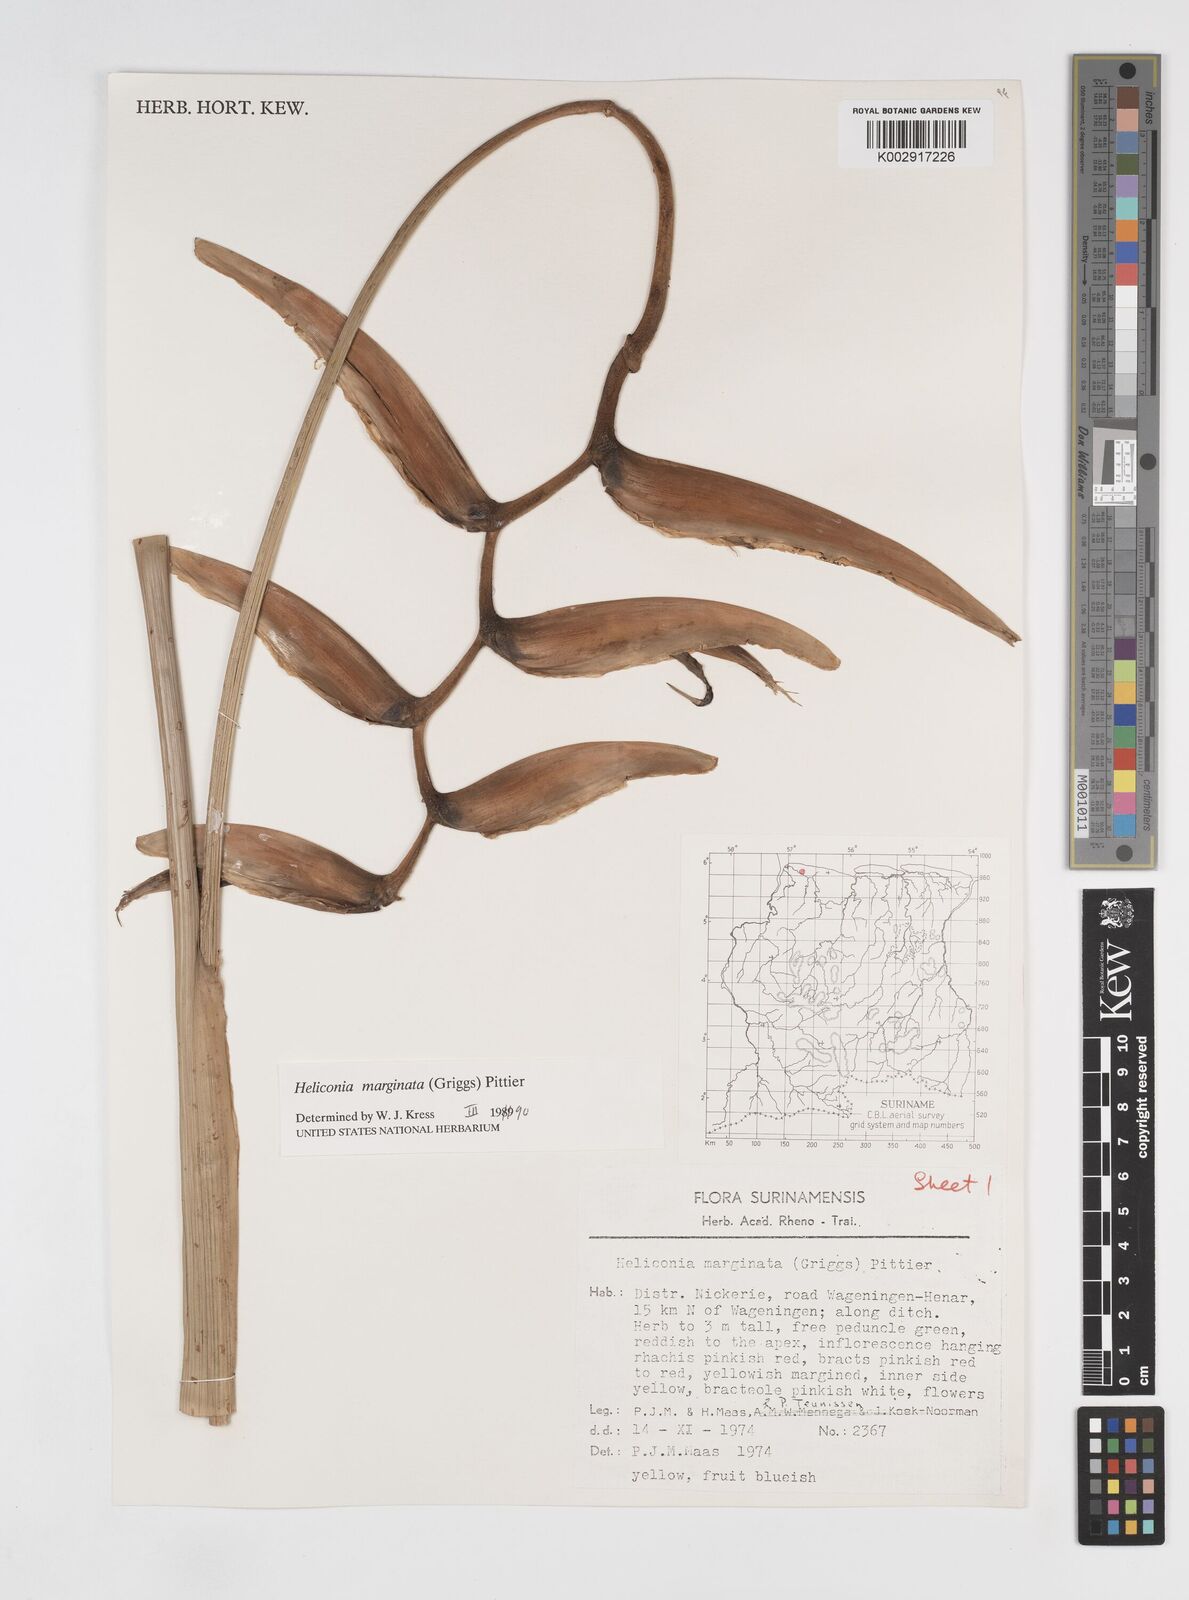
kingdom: Plantae
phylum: Tracheophyta
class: Liliopsida
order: Zingiberales
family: Heliconiaceae
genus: Heliconia
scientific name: Heliconia marginata
